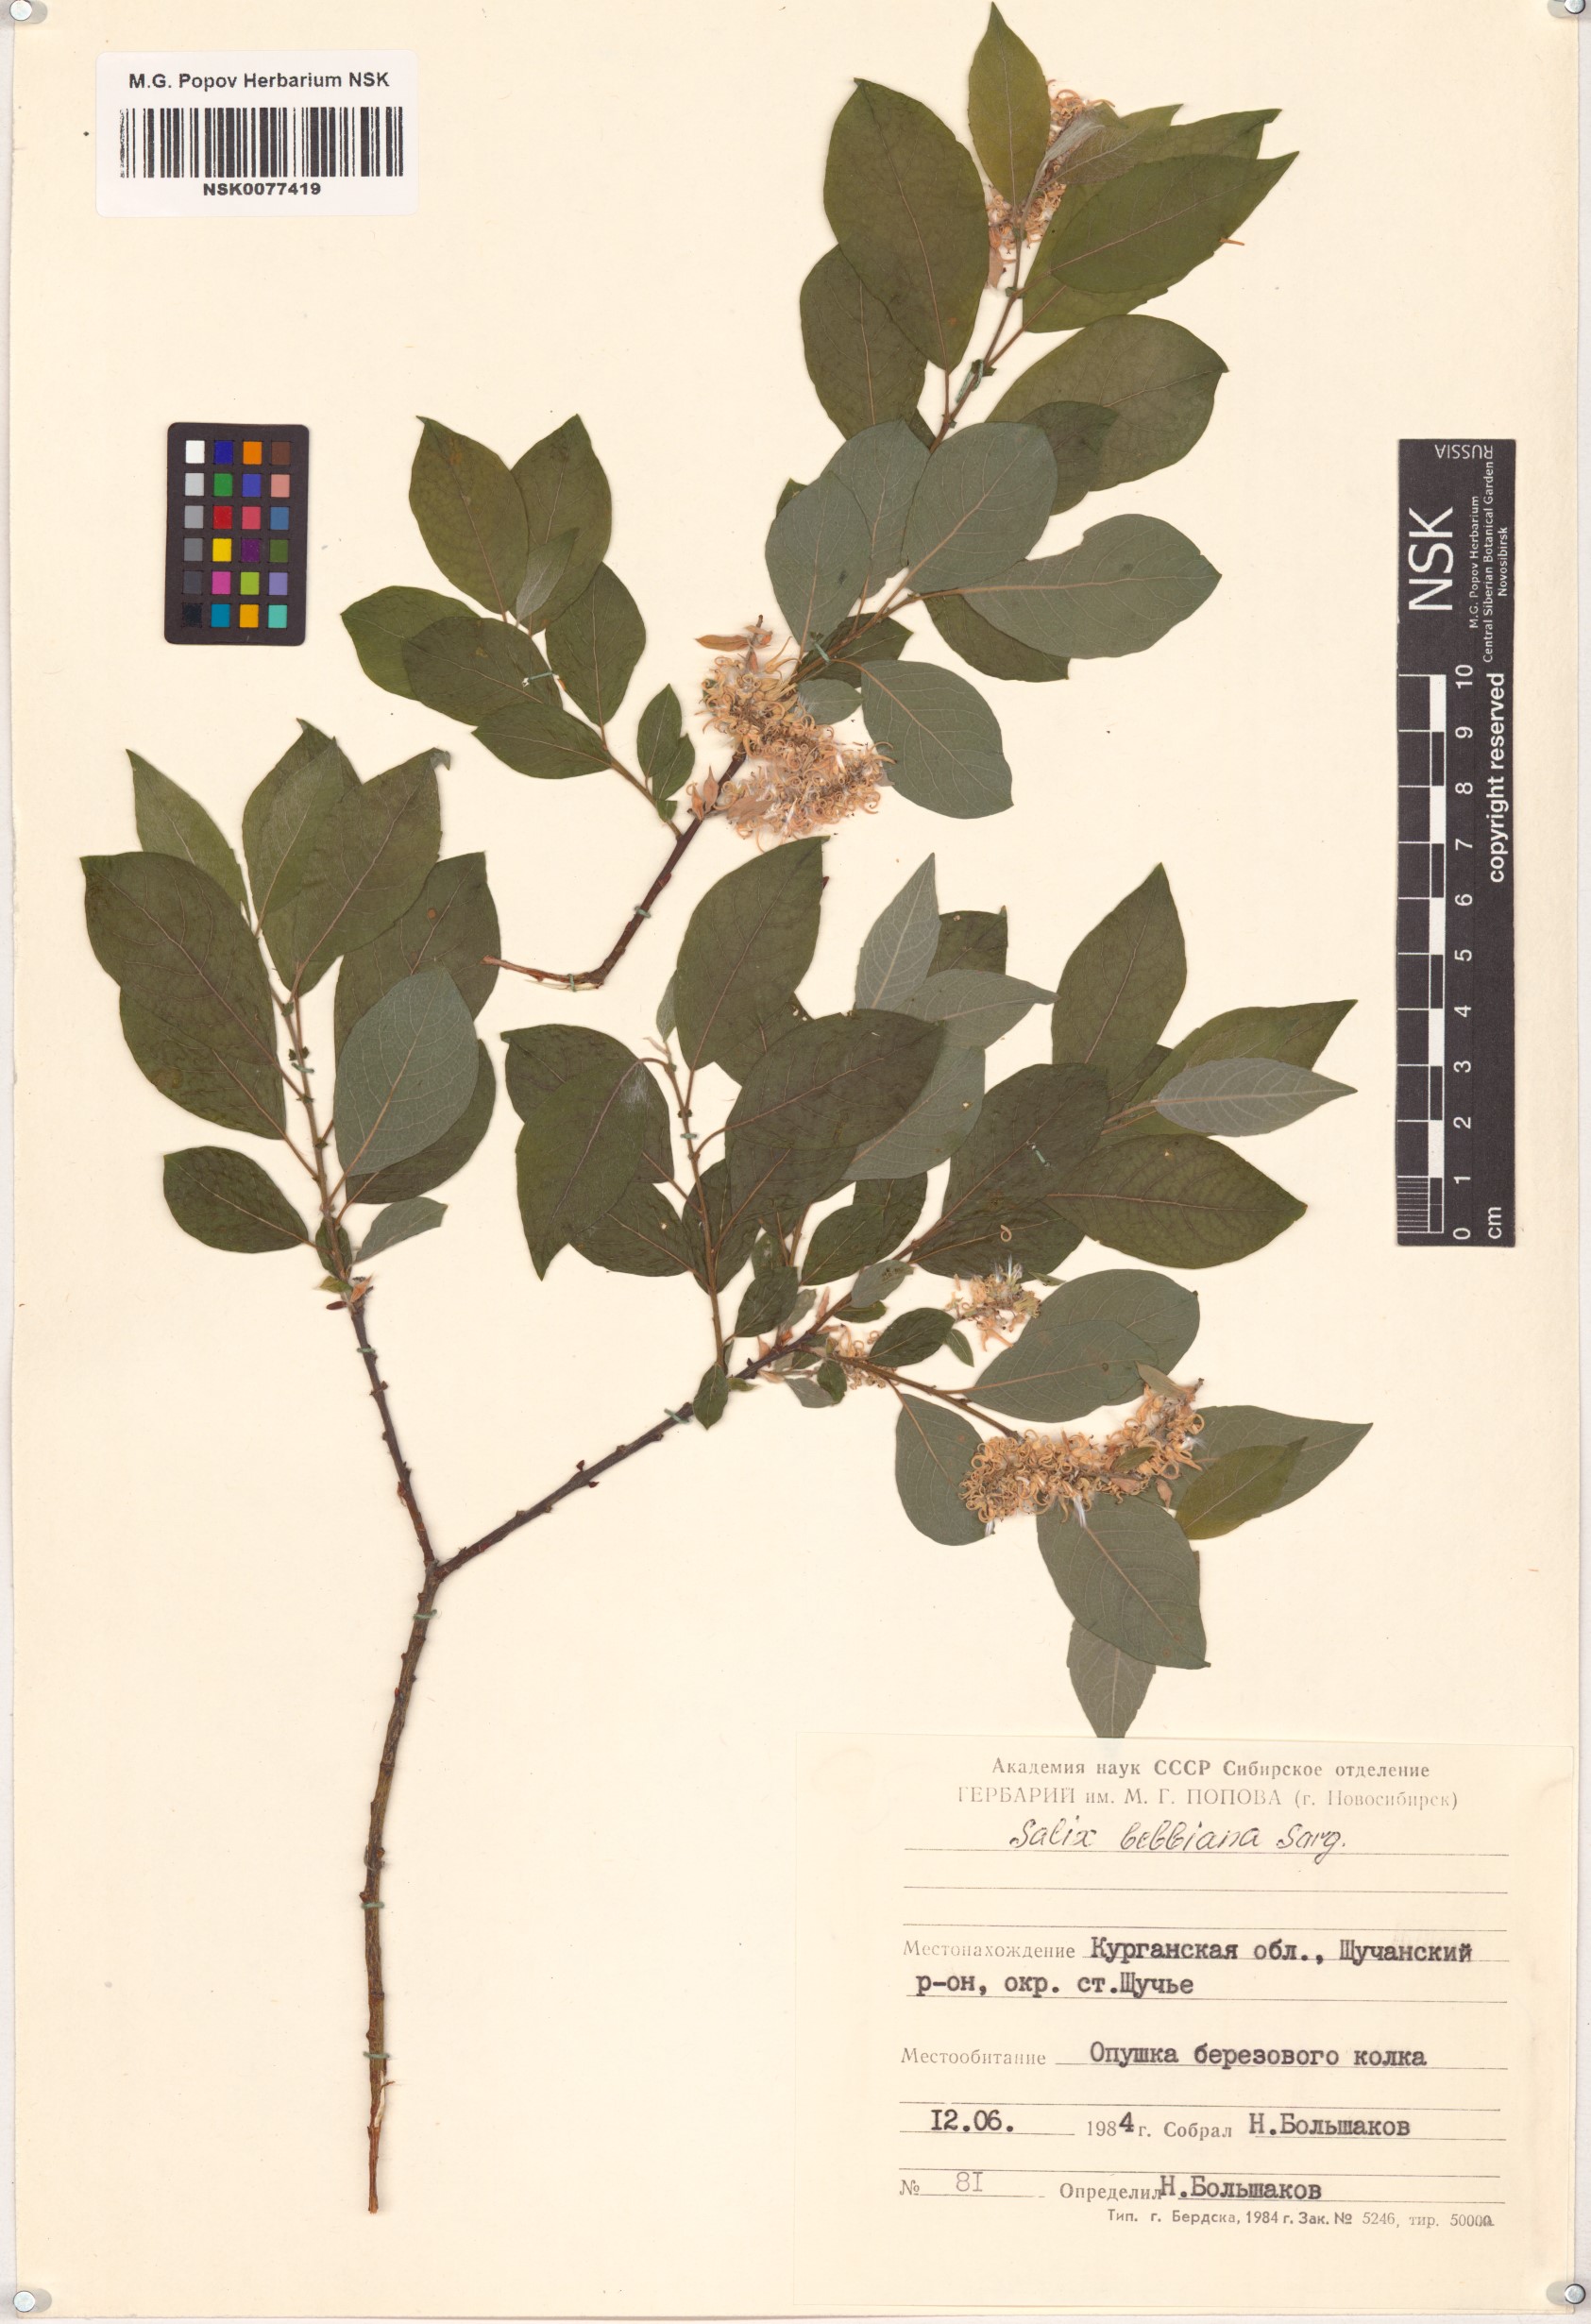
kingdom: Plantae
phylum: Tracheophyta
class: Magnoliopsida
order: Malpighiales
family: Salicaceae
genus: Salix
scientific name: Salix bebbiana
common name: Bebb's willow
